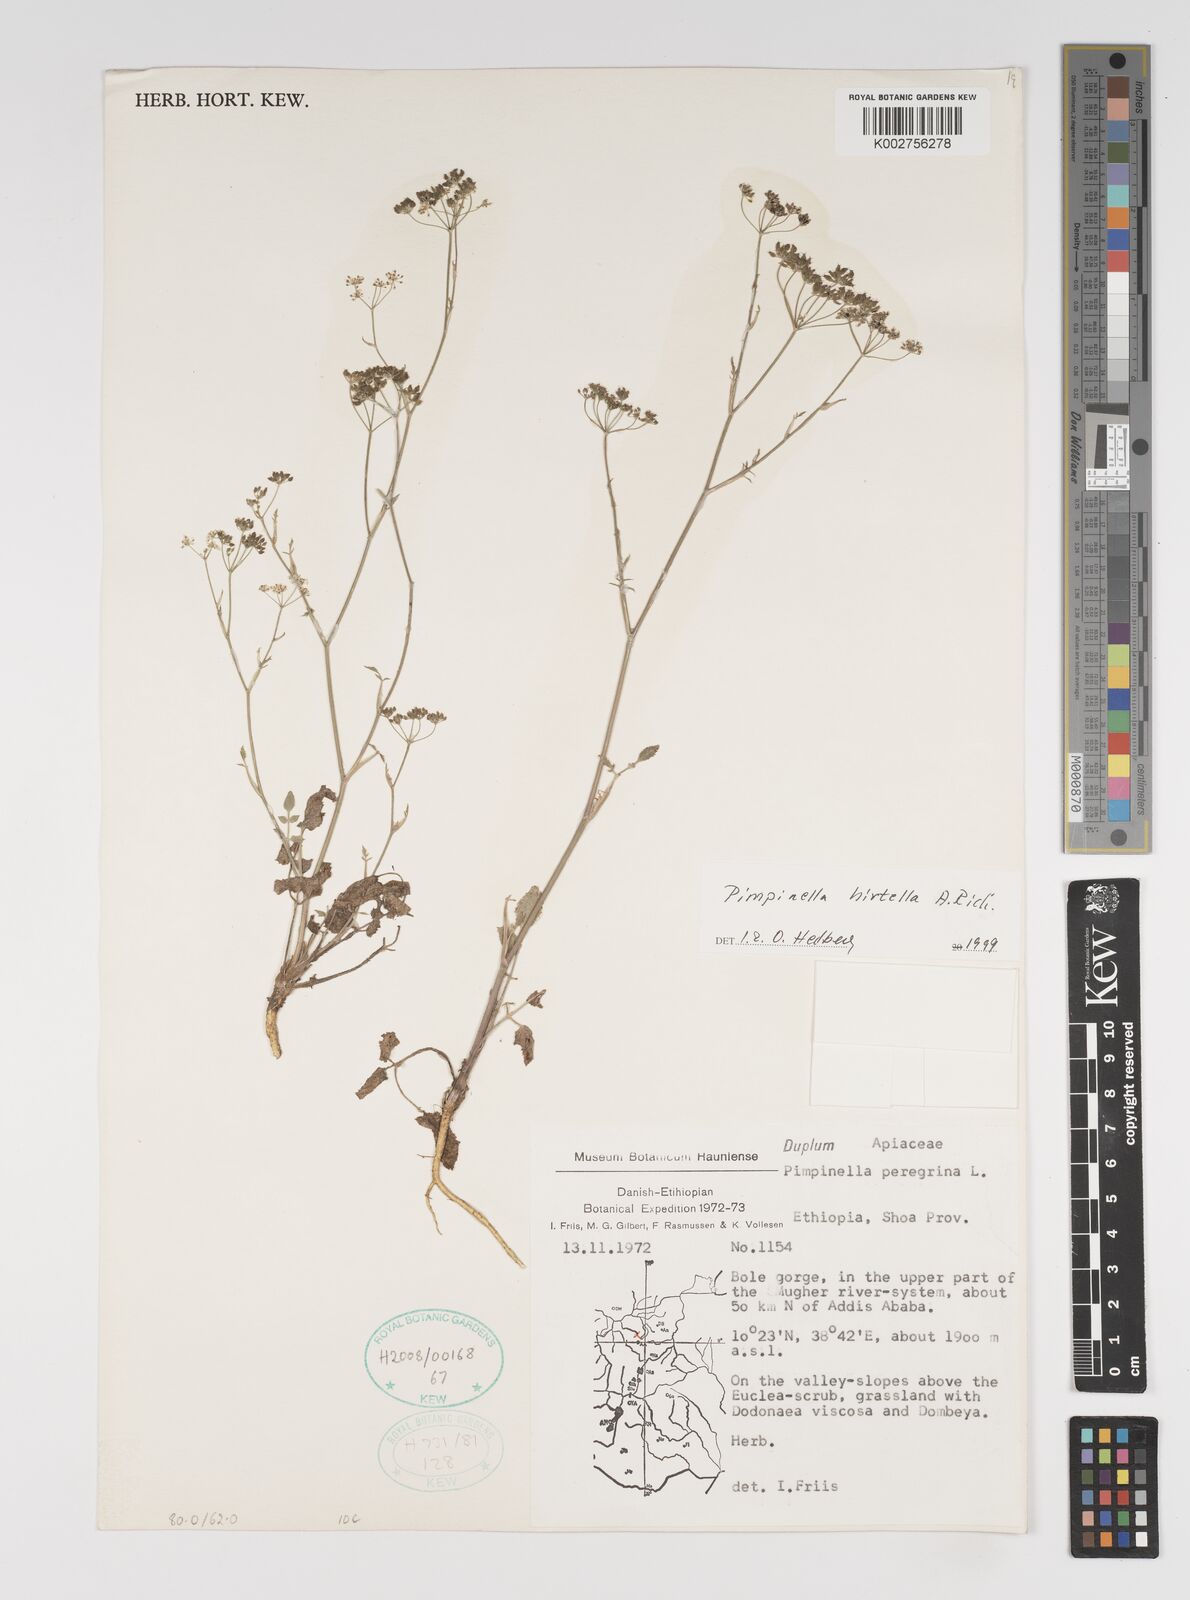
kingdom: Plantae
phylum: Tracheophyta
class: Magnoliopsida
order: Apiales
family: Apiaceae
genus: Pimpinella
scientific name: Pimpinella hirtella
